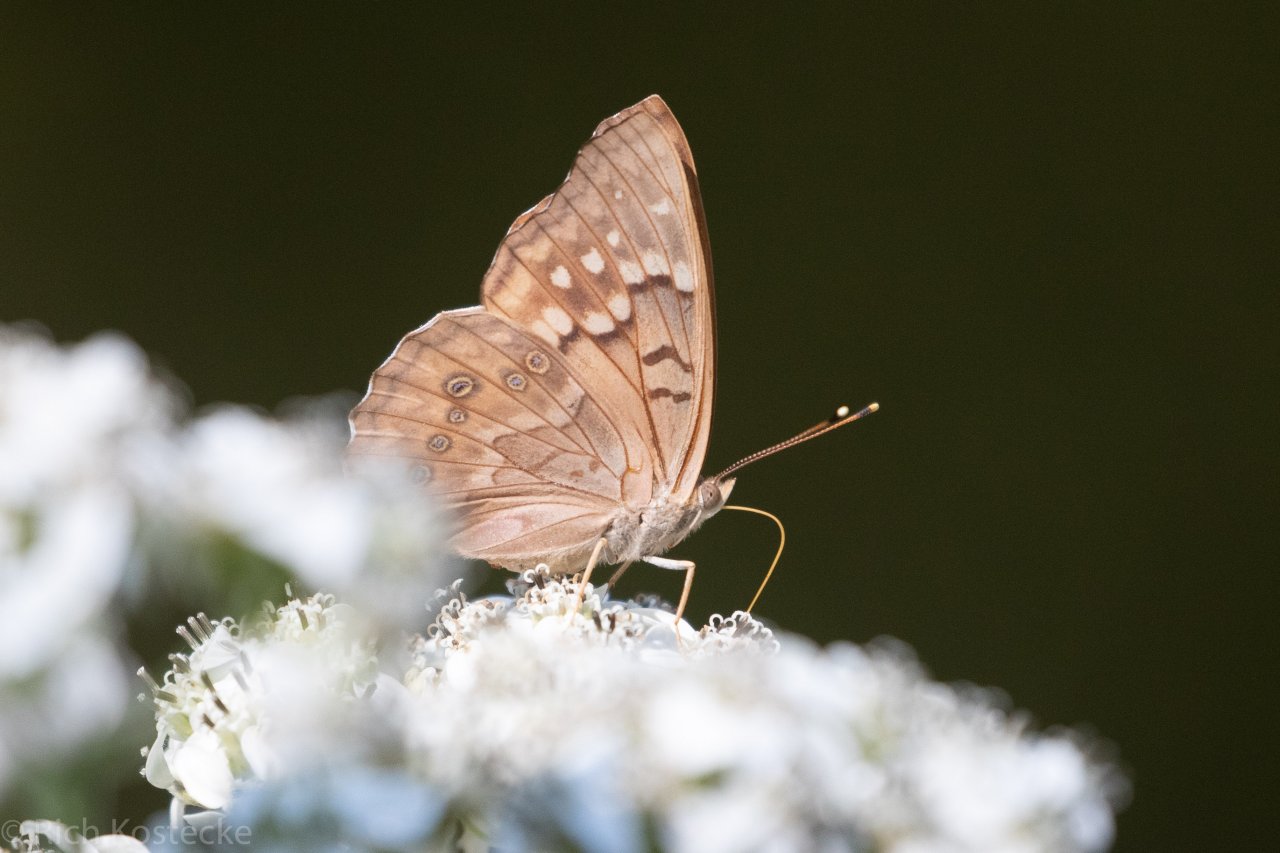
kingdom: Animalia
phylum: Arthropoda
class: Insecta
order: Lepidoptera
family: Nymphalidae
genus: Asterocampa
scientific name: Asterocampa clyton
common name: Tawny Emperor
